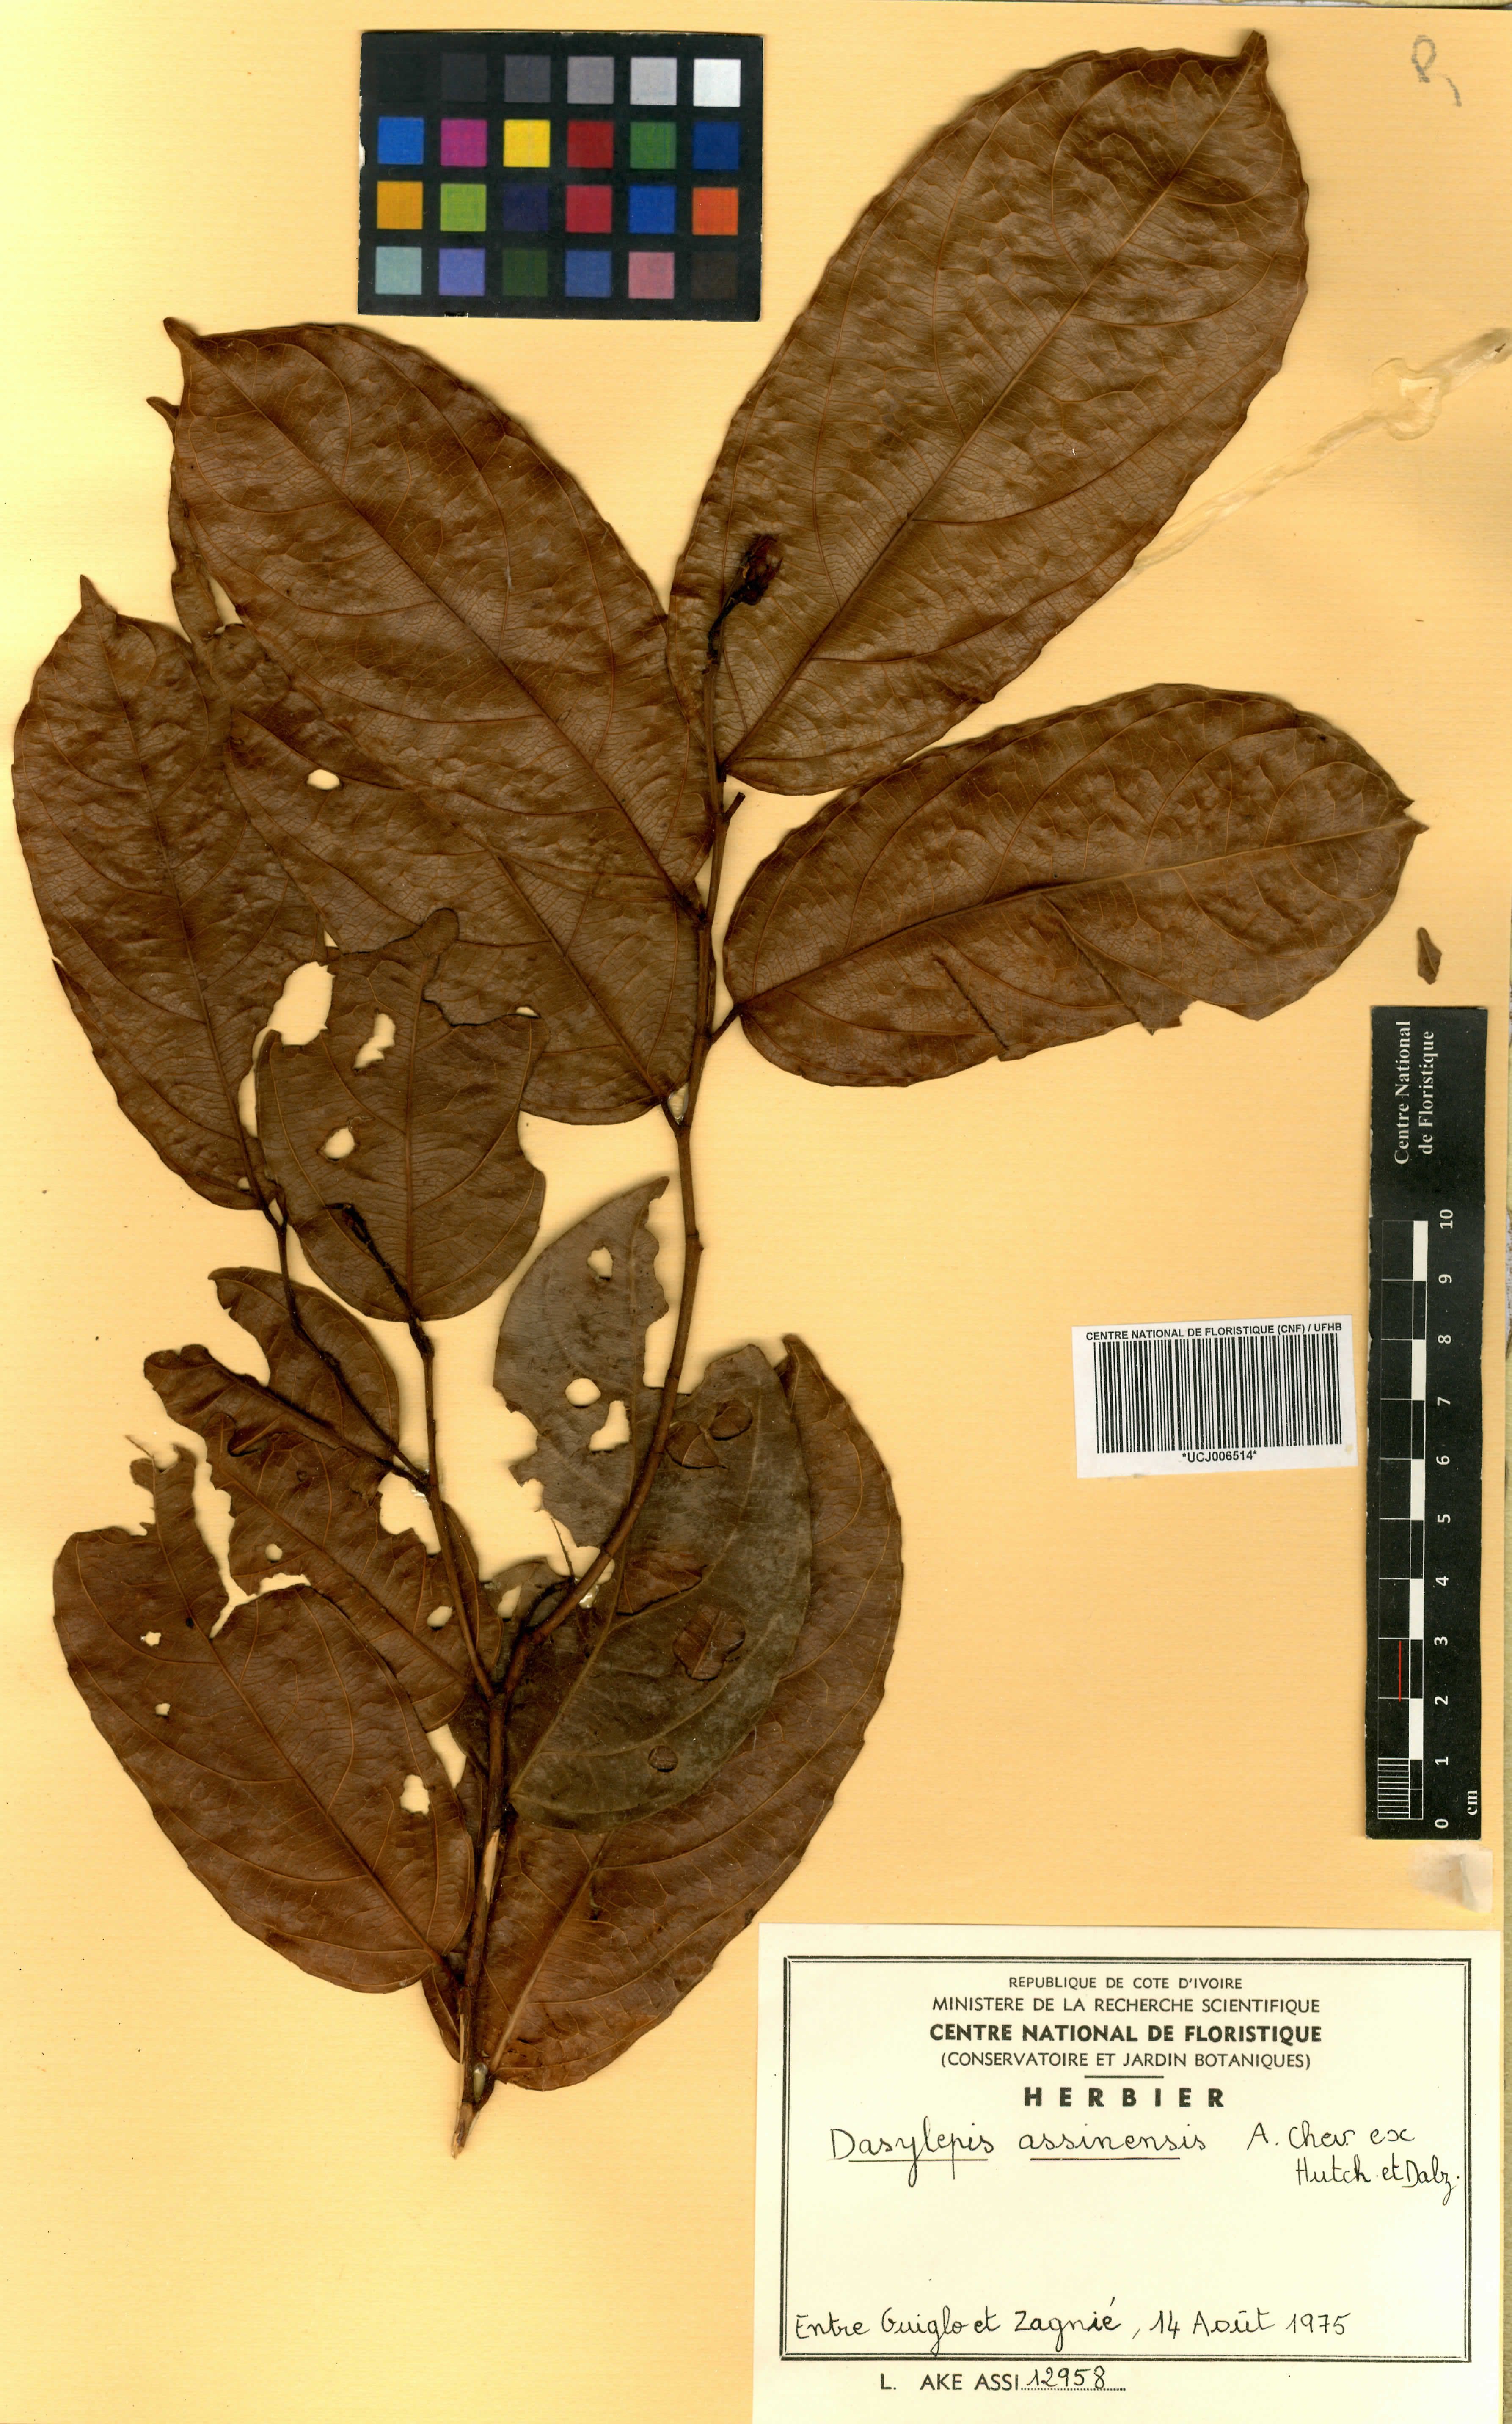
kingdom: Plantae
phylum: Tracheophyta
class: Magnoliopsida
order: Malpighiales
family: Achariaceae
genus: Dasylepis
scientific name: Dasylepis racemosa
